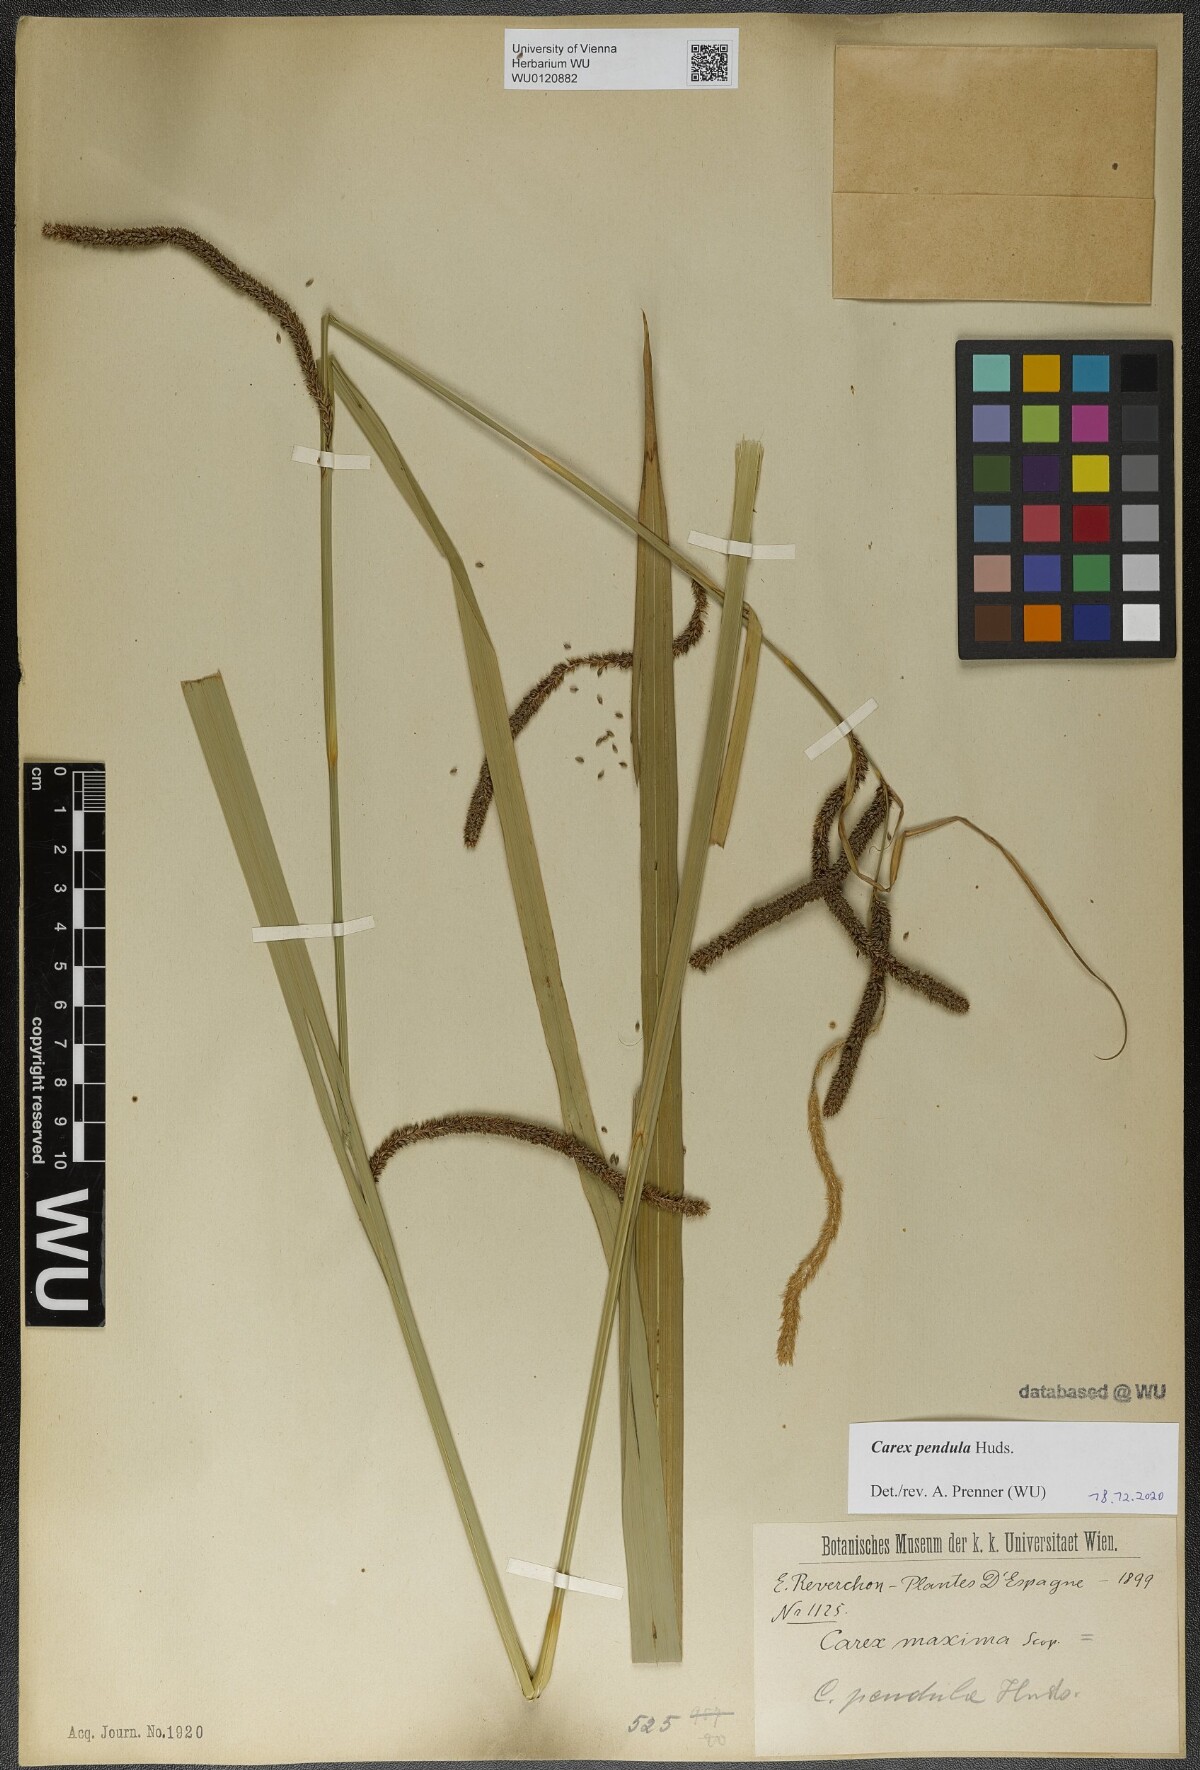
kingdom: Plantae
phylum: Tracheophyta
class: Liliopsida
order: Poales
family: Cyperaceae
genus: Carex
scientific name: Carex pendula
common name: Pendulous sedge
